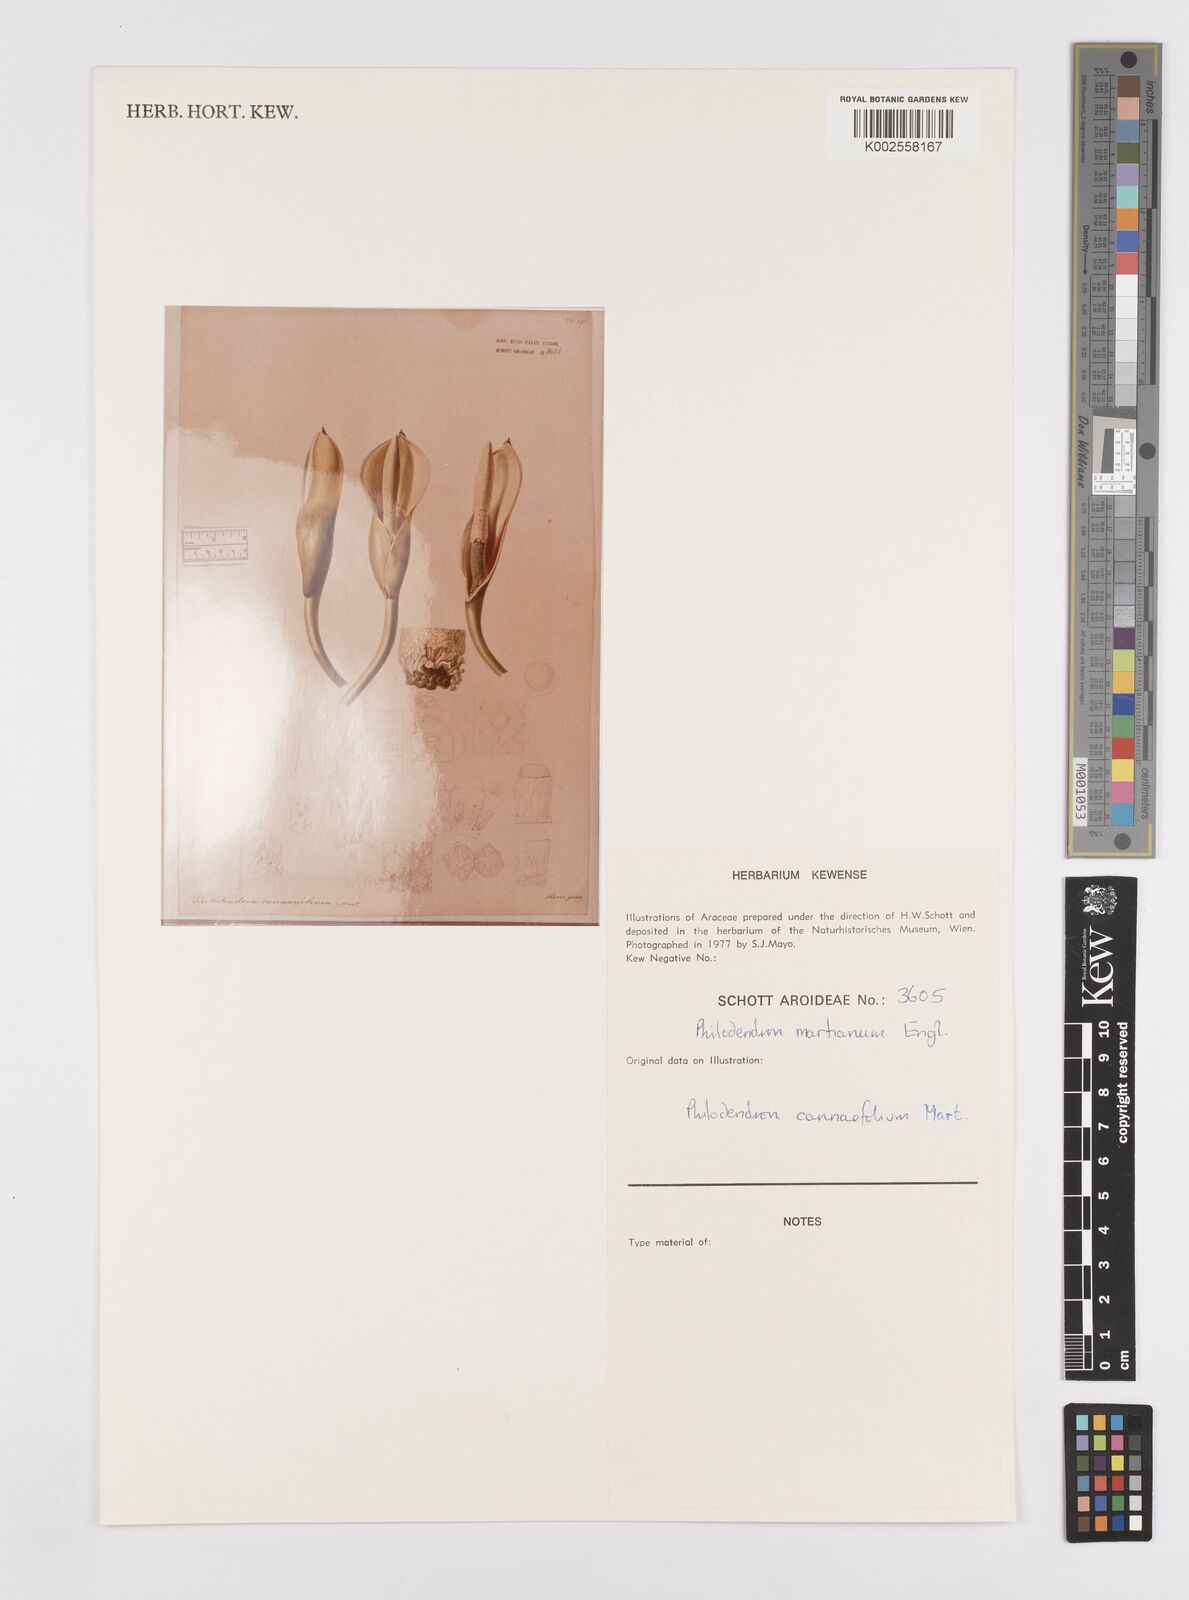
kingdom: Plantae
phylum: Tracheophyta
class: Liliopsida
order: Alismatales
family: Araceae
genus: Philodendron
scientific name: Philodendron martianum
